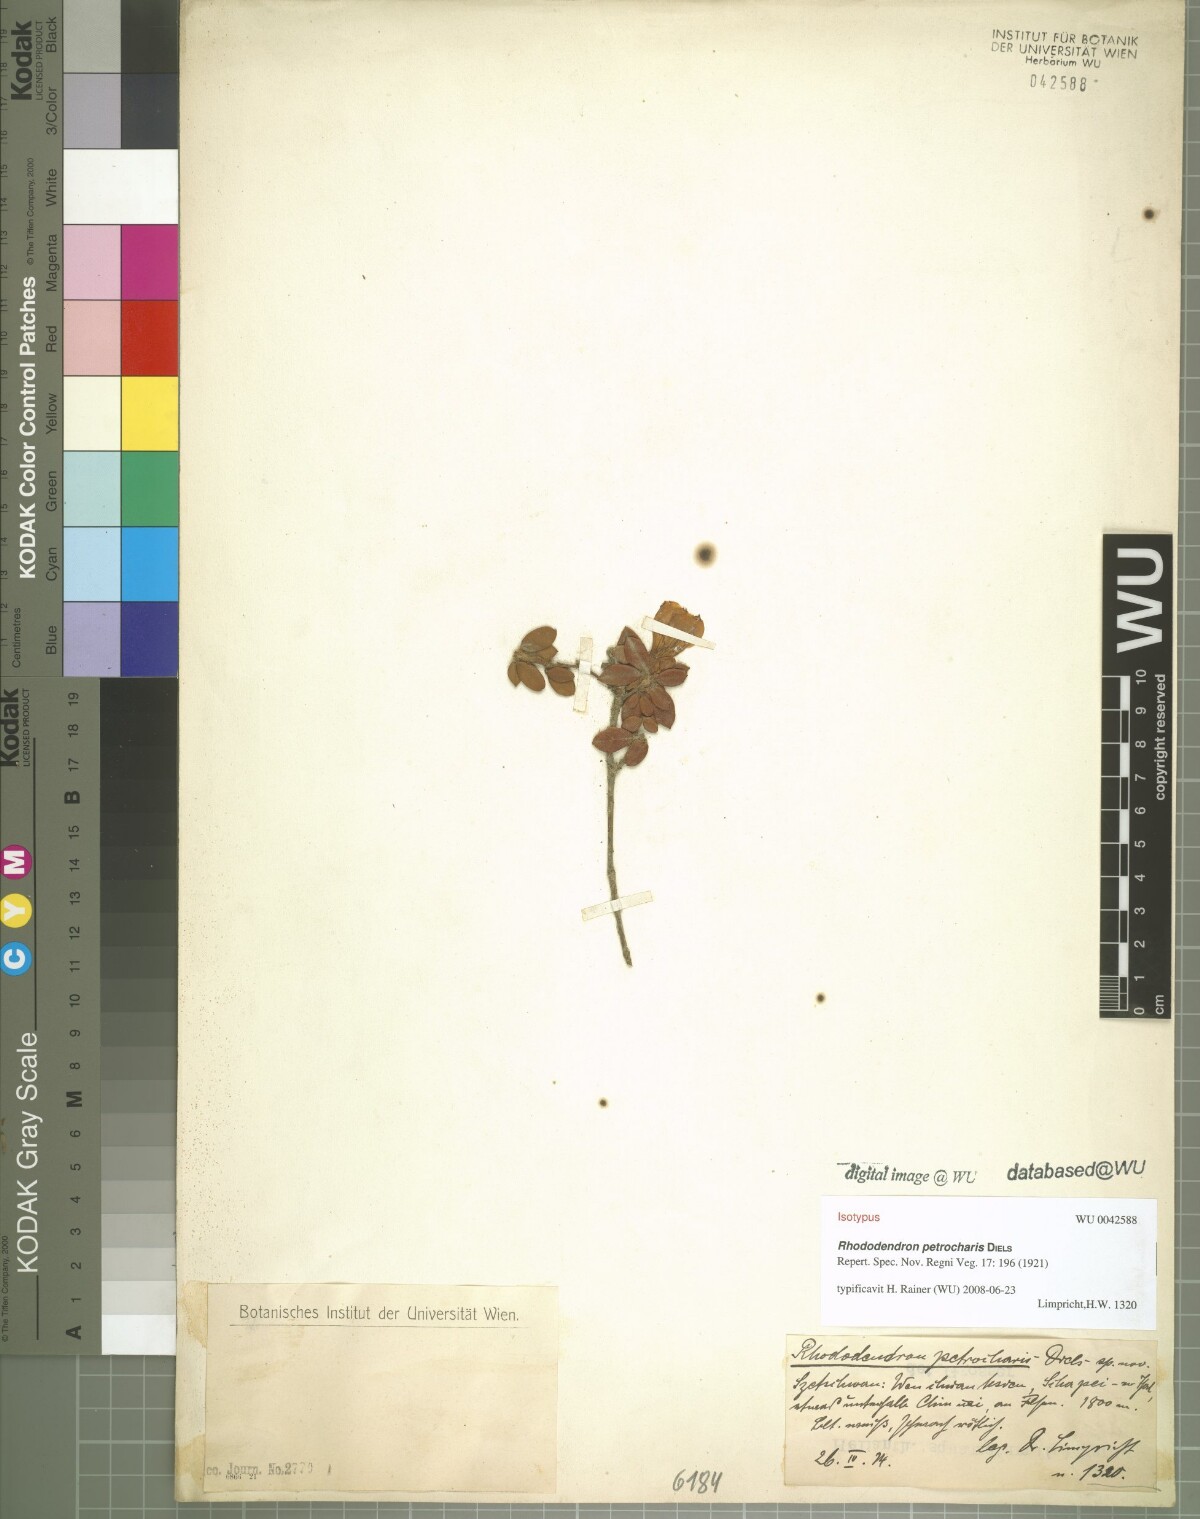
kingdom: Plantae
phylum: Tracheophyta
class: Magnoliopsida
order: Ericales
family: Ericaceae
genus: Rhododendron
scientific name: Rhododendron petrocharis
